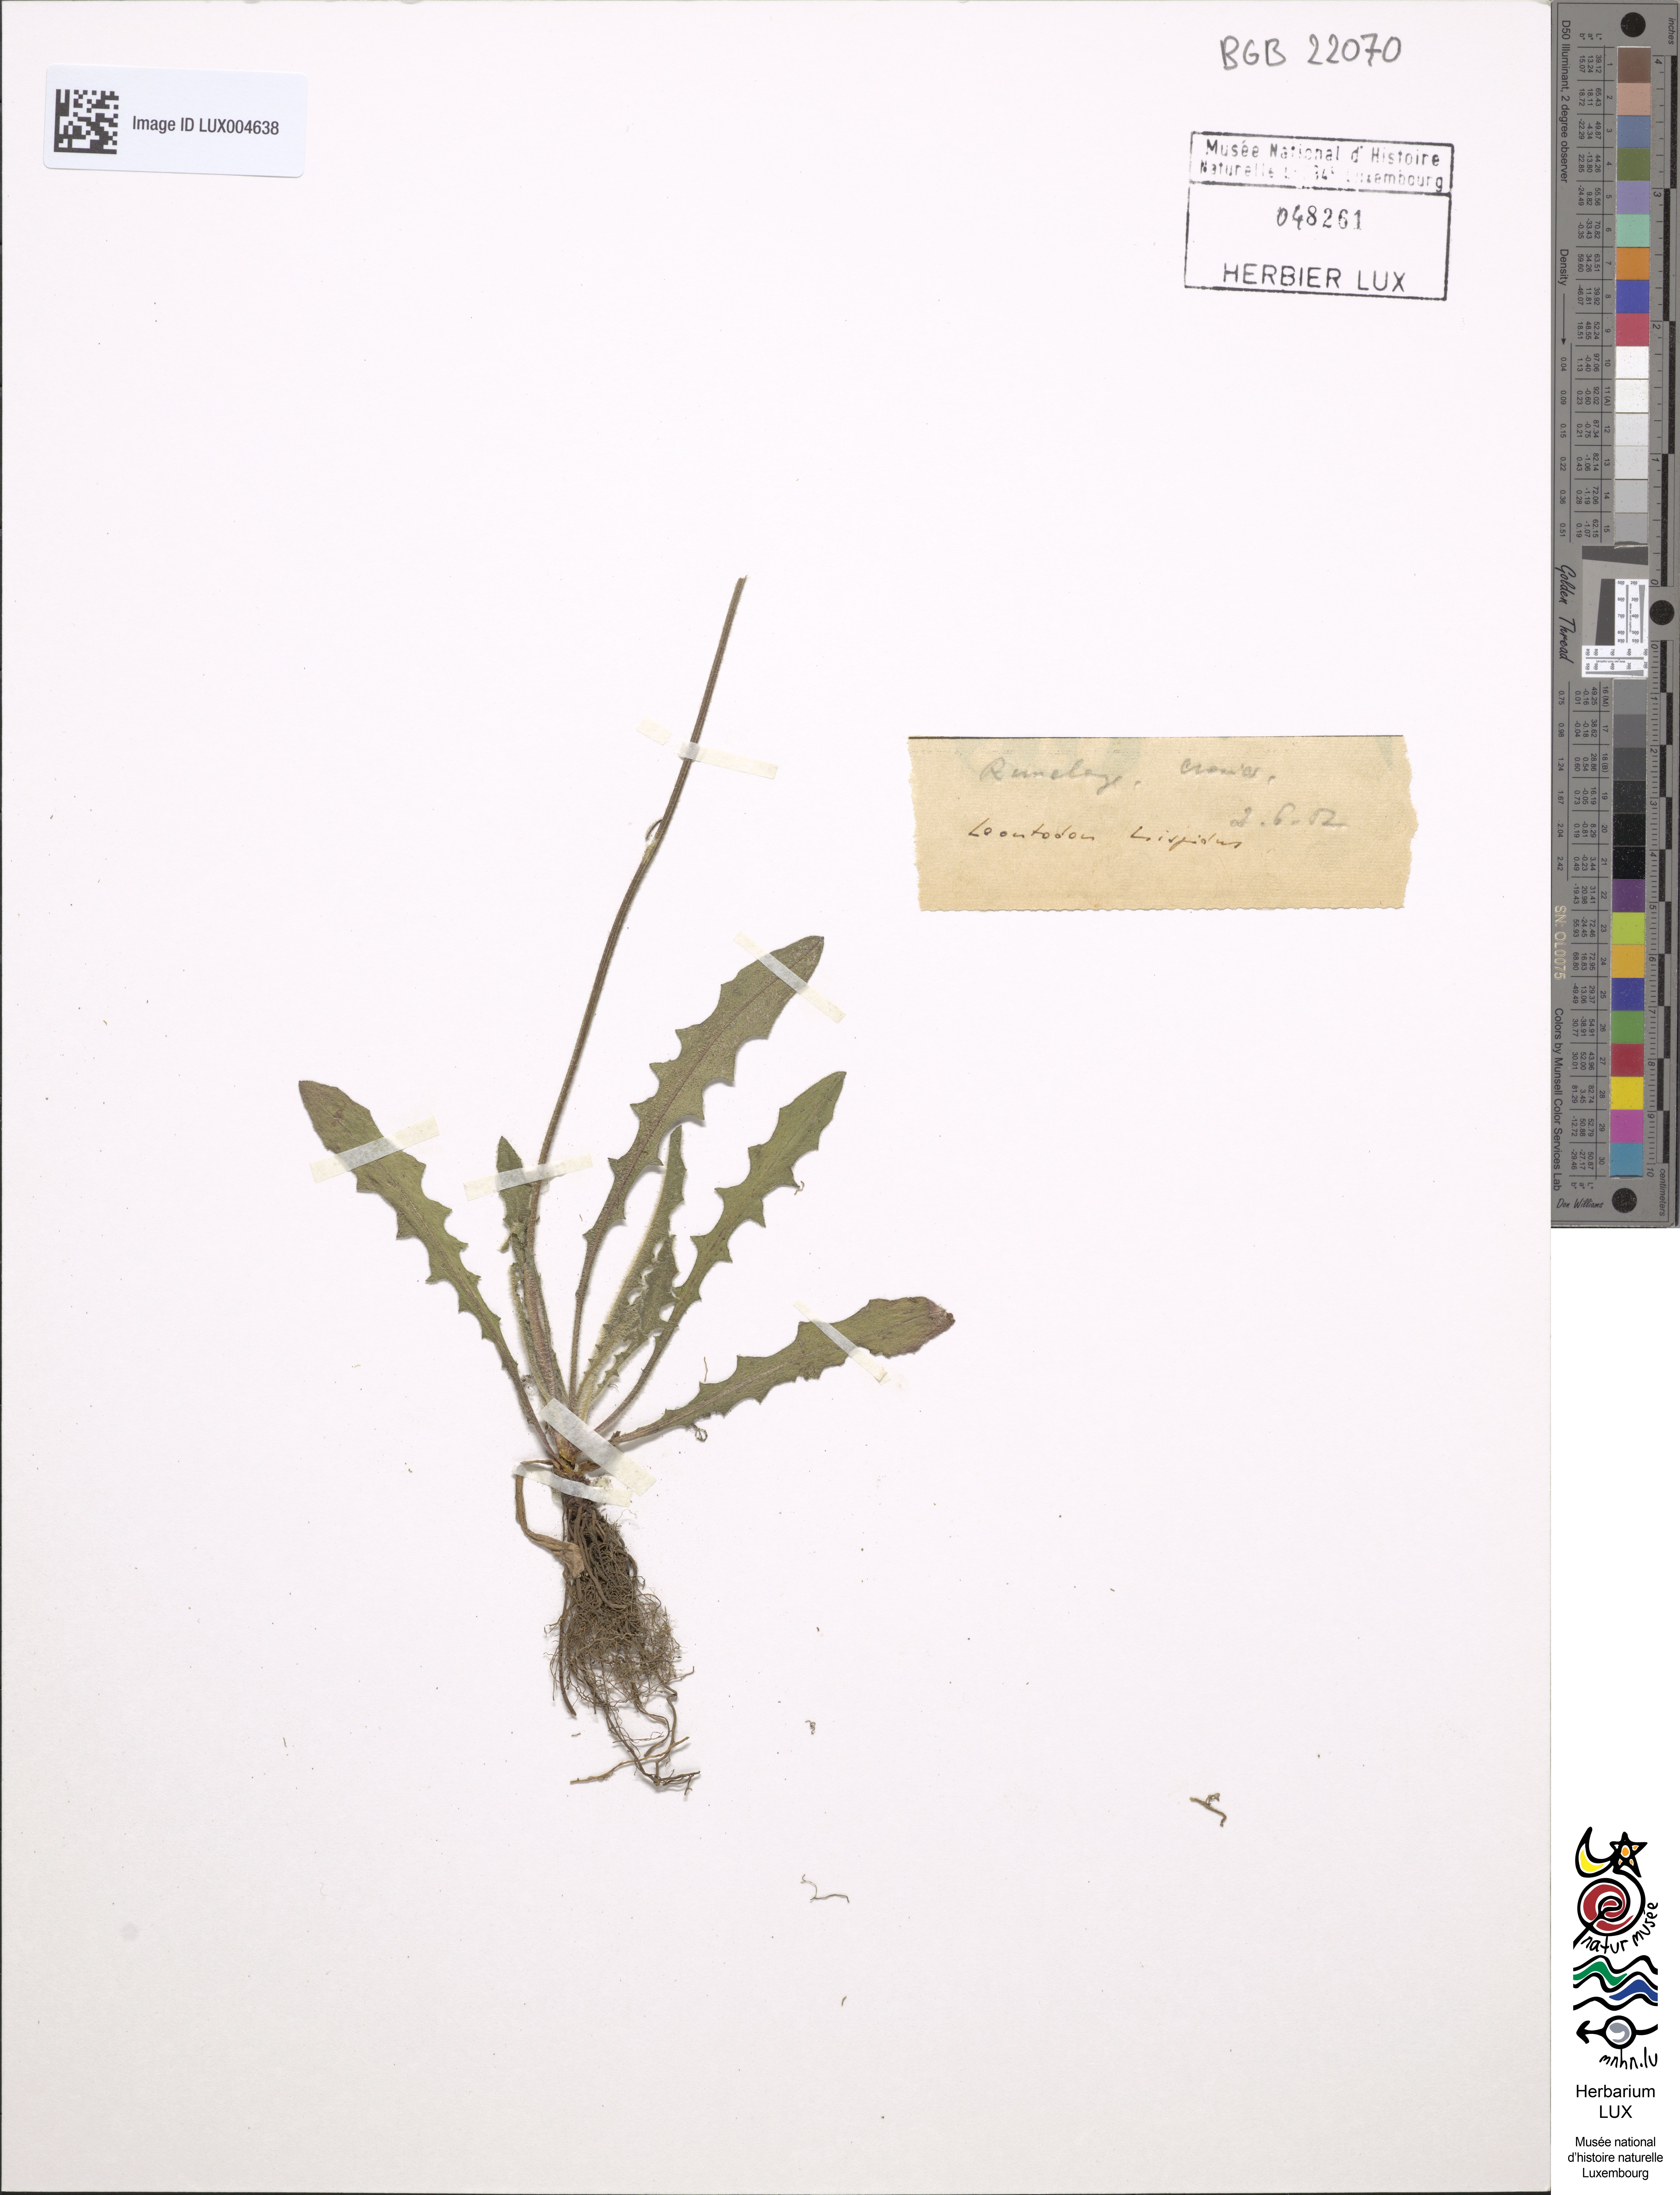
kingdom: Plantae
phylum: Tracheophyta
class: Magnoliopsida
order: Asterales
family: Asteraceae
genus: Leontodon
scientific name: Leontodon hispidus
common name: Rough hawkbit
